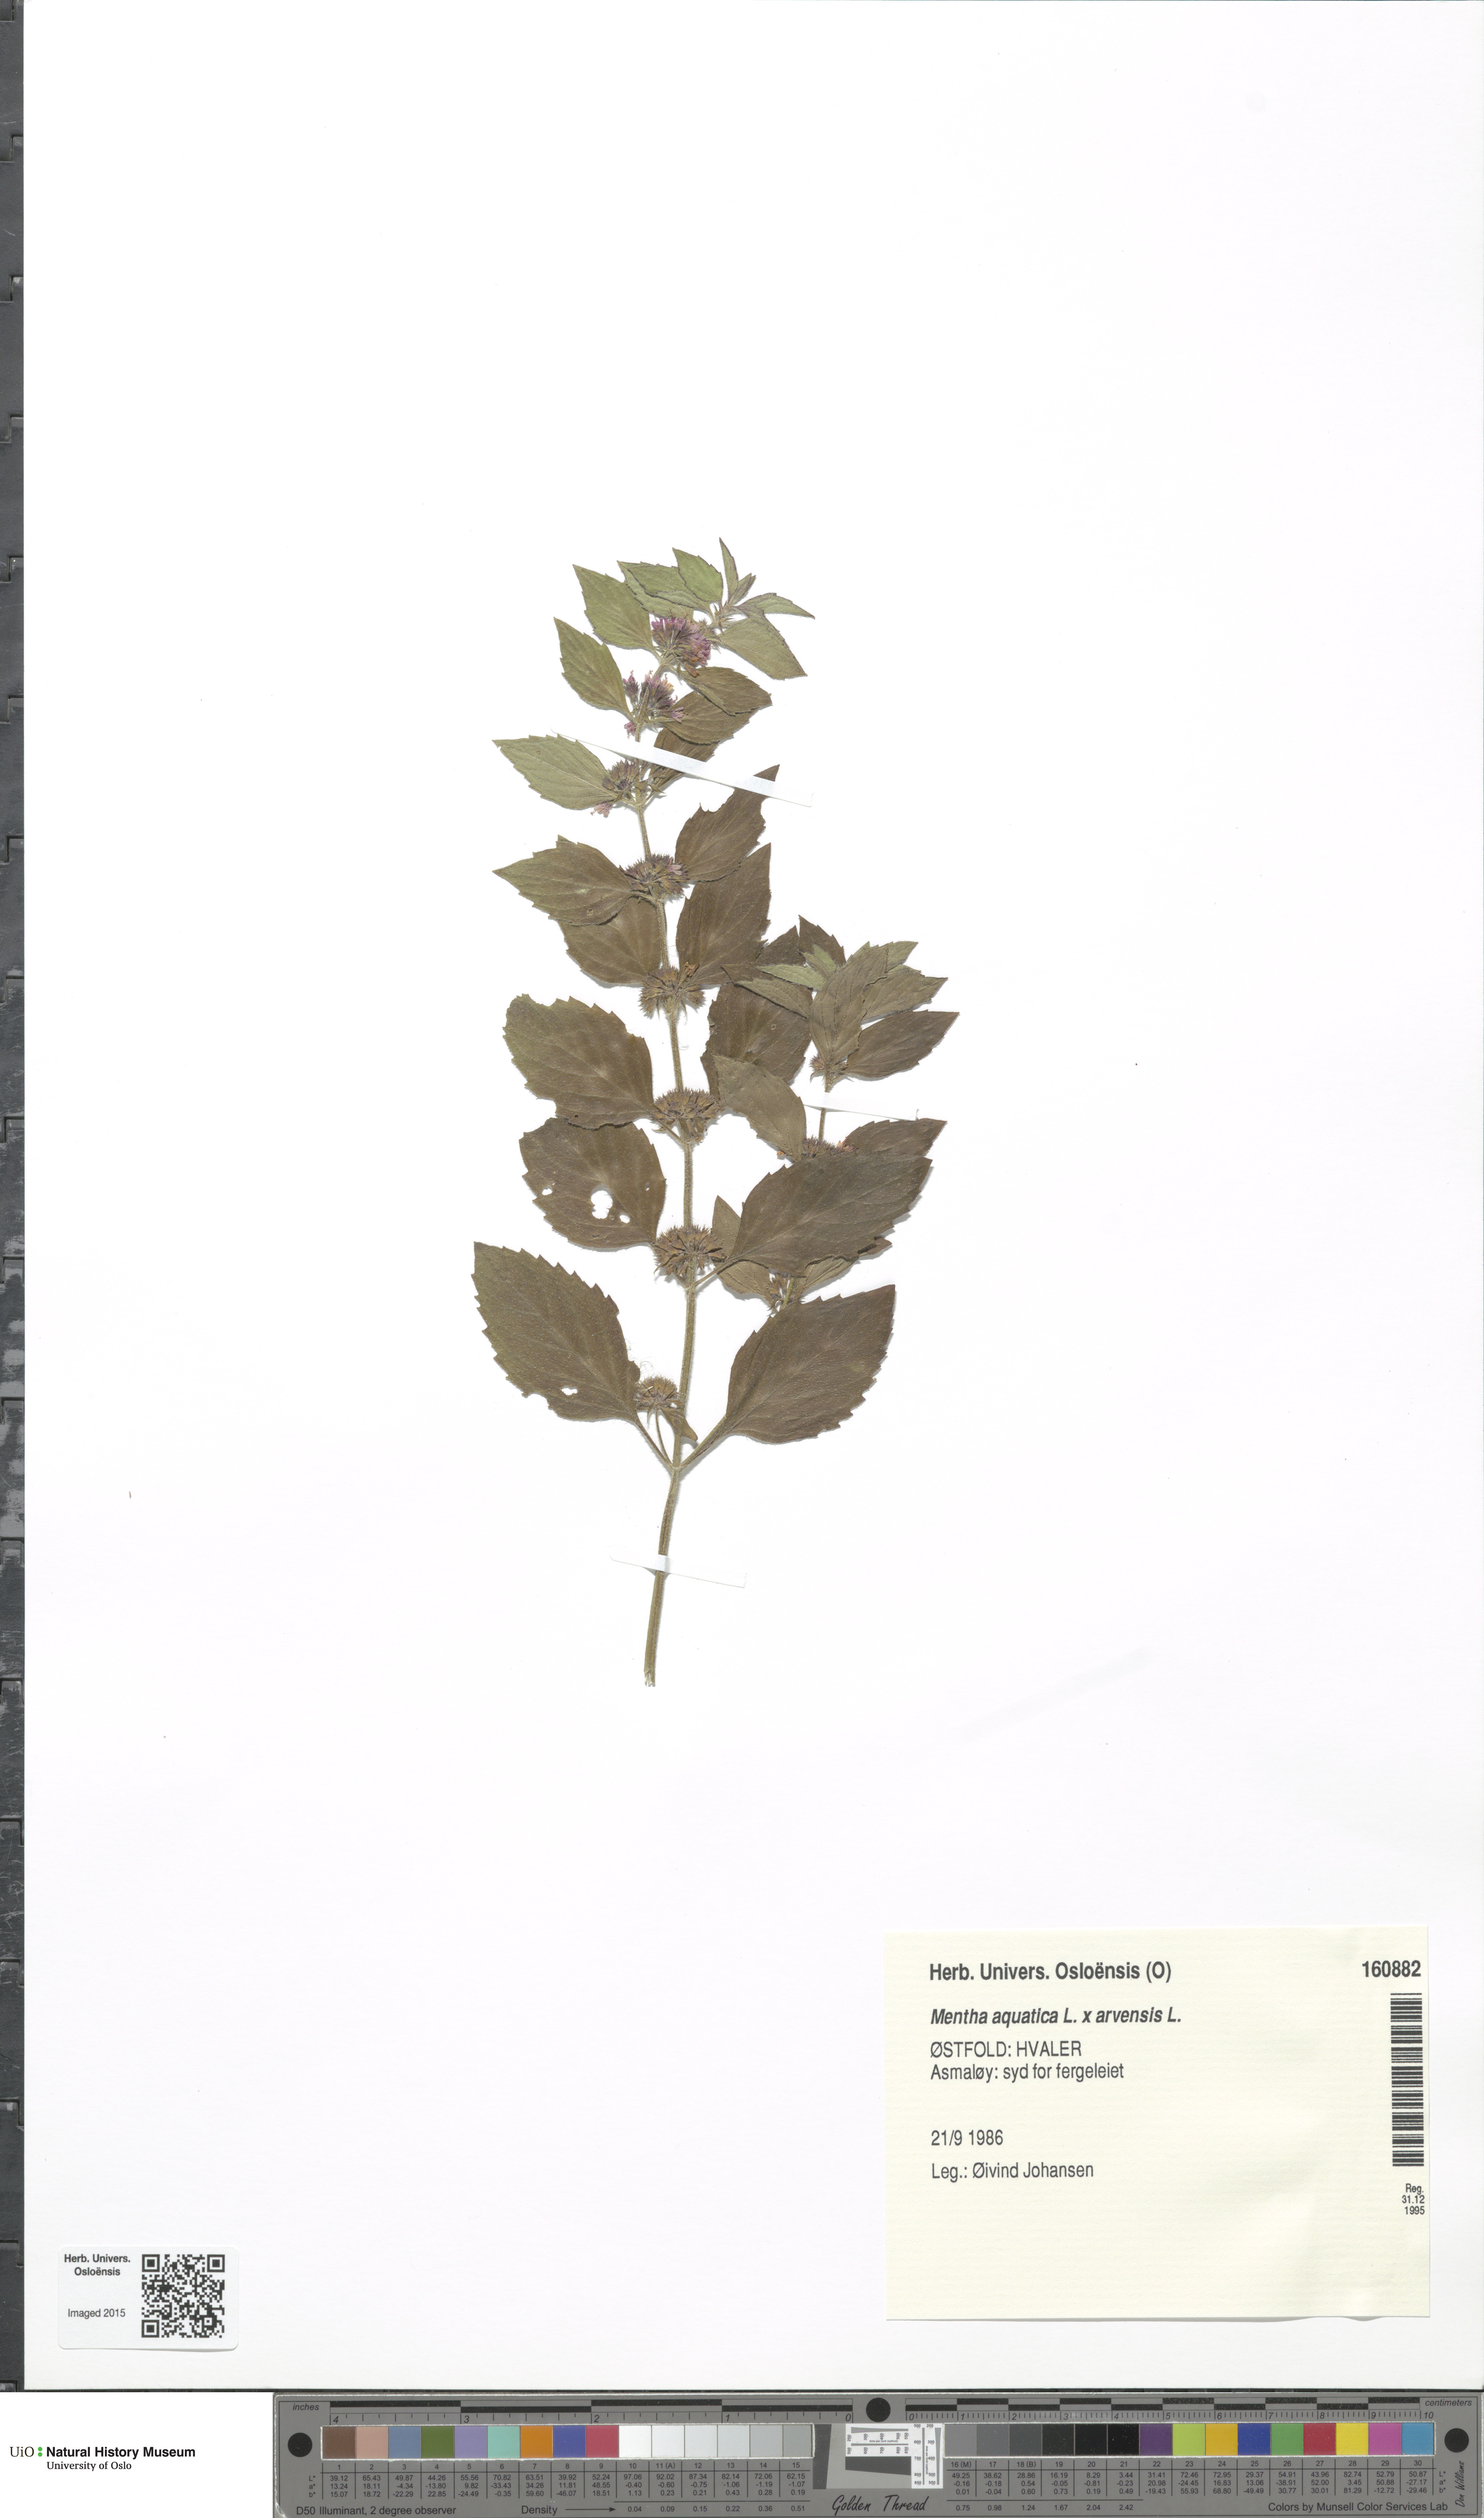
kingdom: Plantae
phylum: Tracheophyta
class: Magnoliopsida
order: Lamiales
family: Lamiaceae
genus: Mentha
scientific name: Mentha
